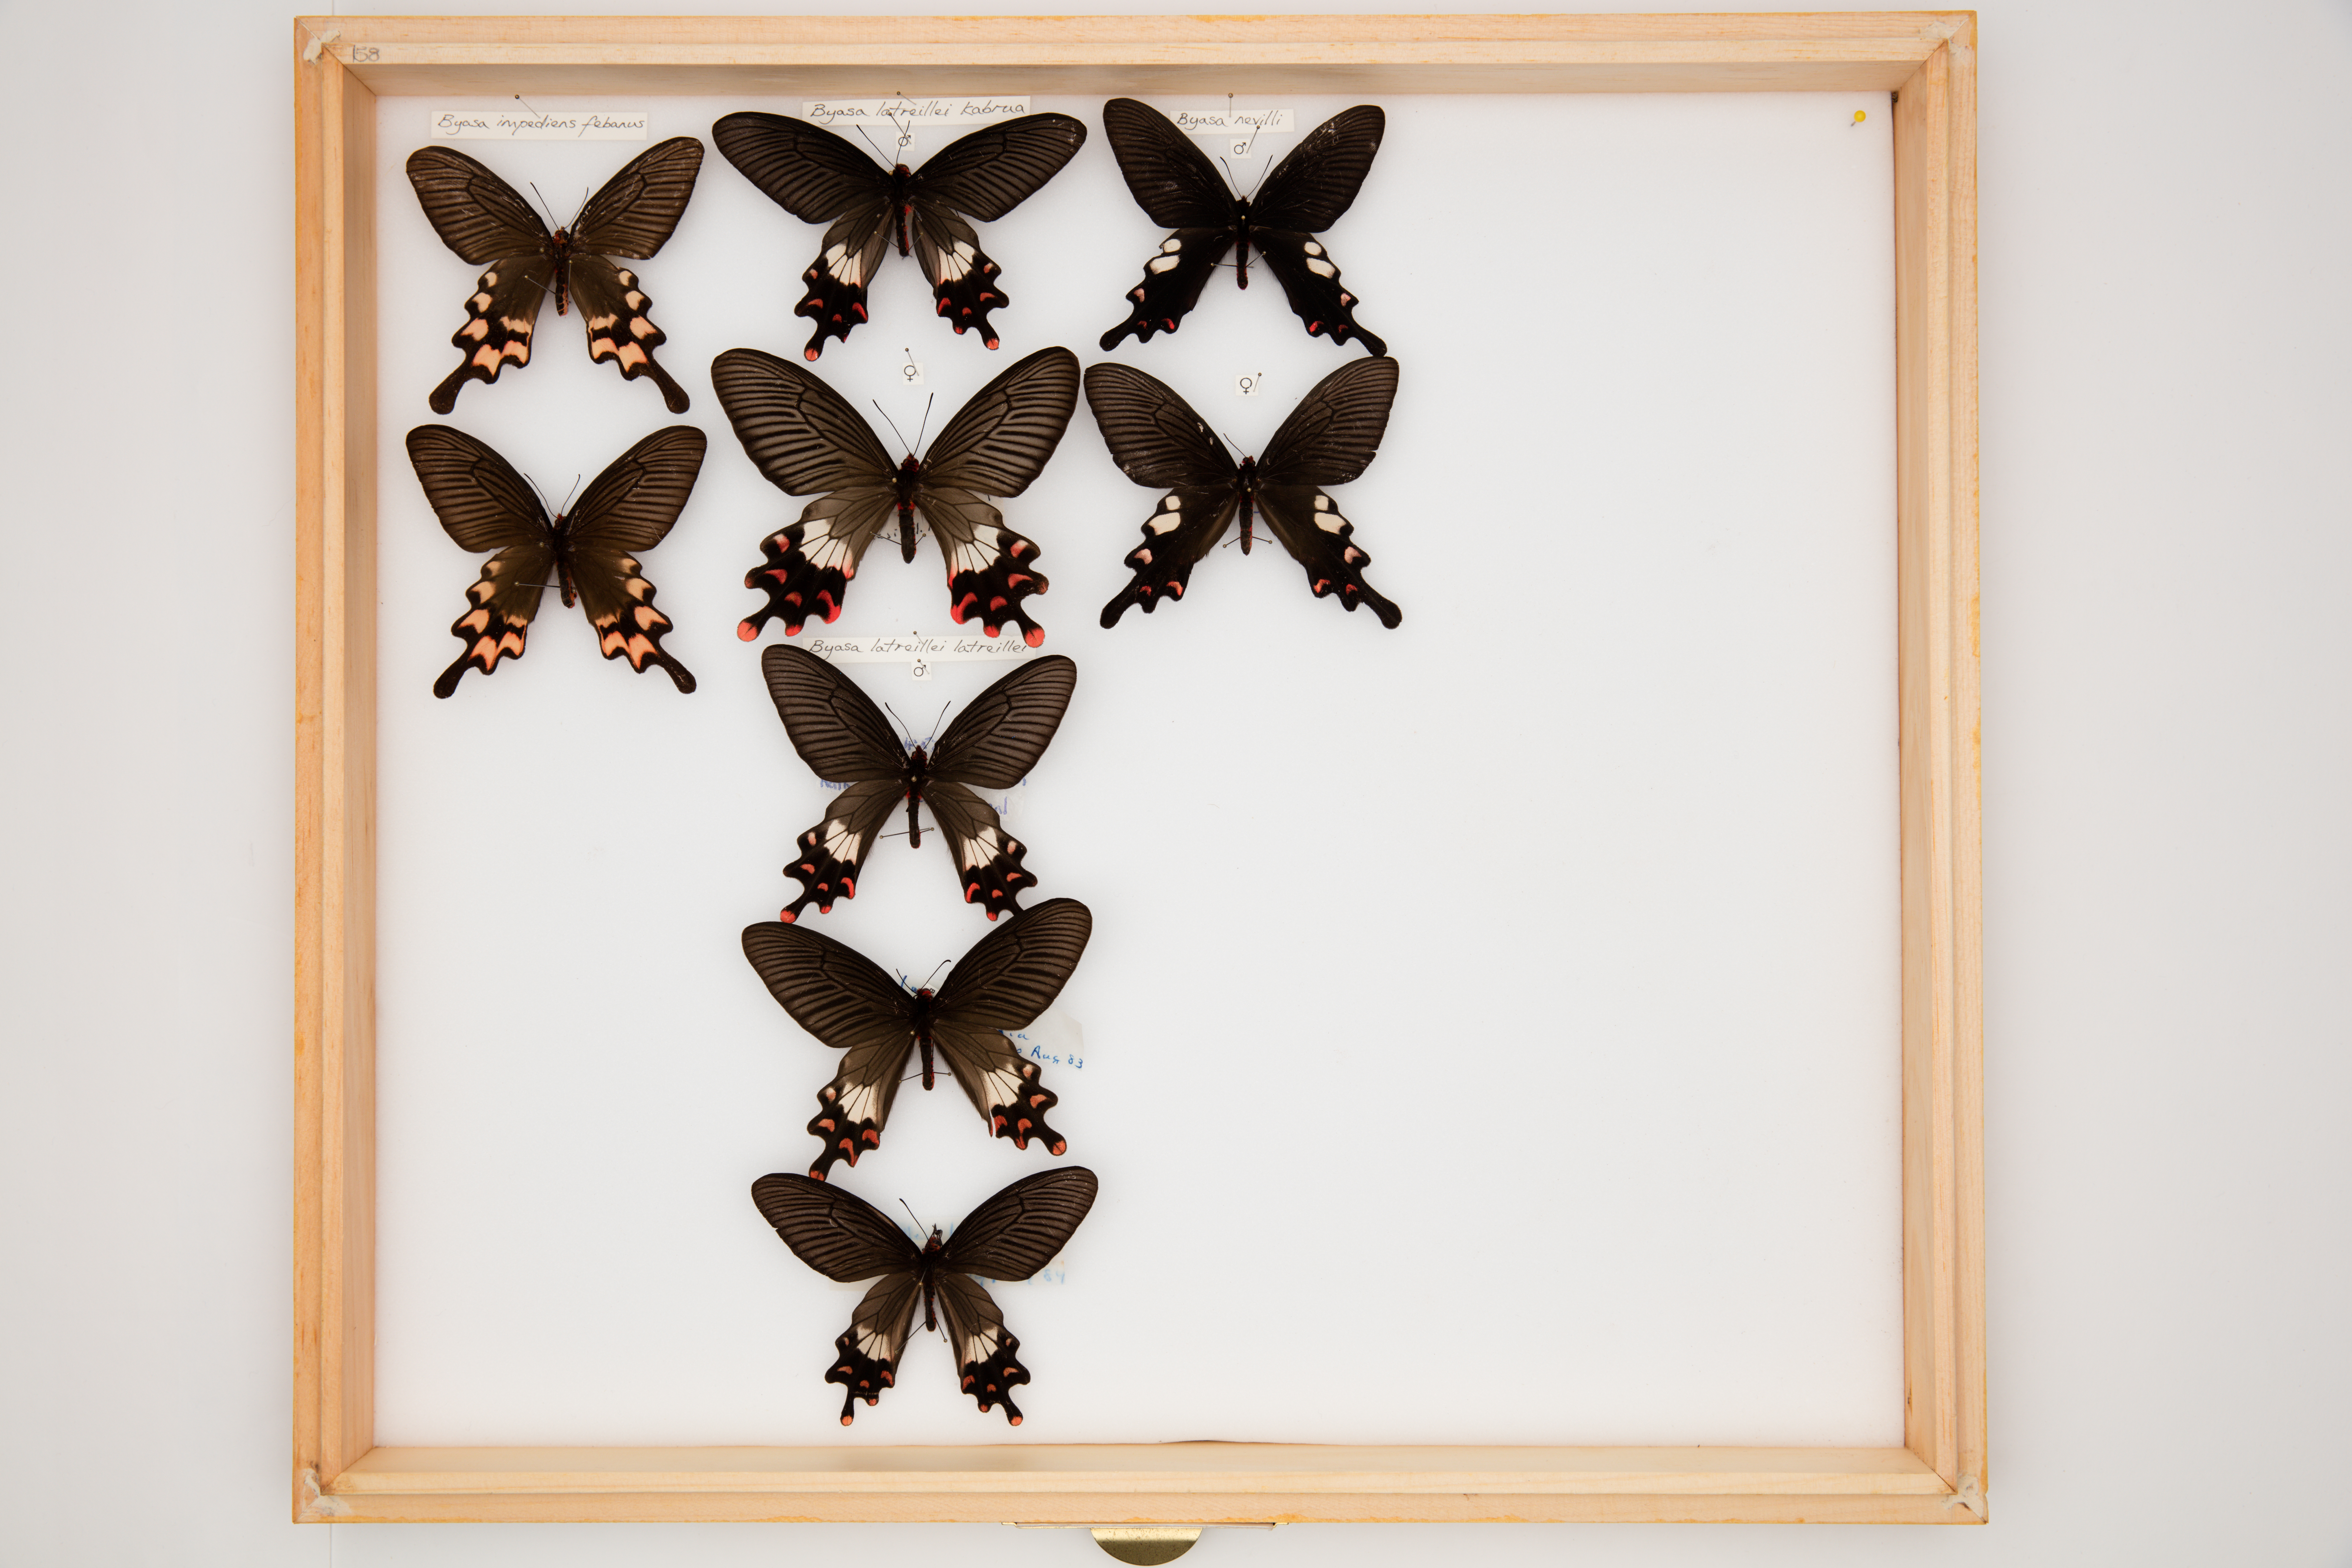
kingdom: Animalia
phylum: Arthropoda
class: Insecta
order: Lepidoptera
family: Papilionidae
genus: Byasa
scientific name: Byasa latreillei
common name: Rose windmill
